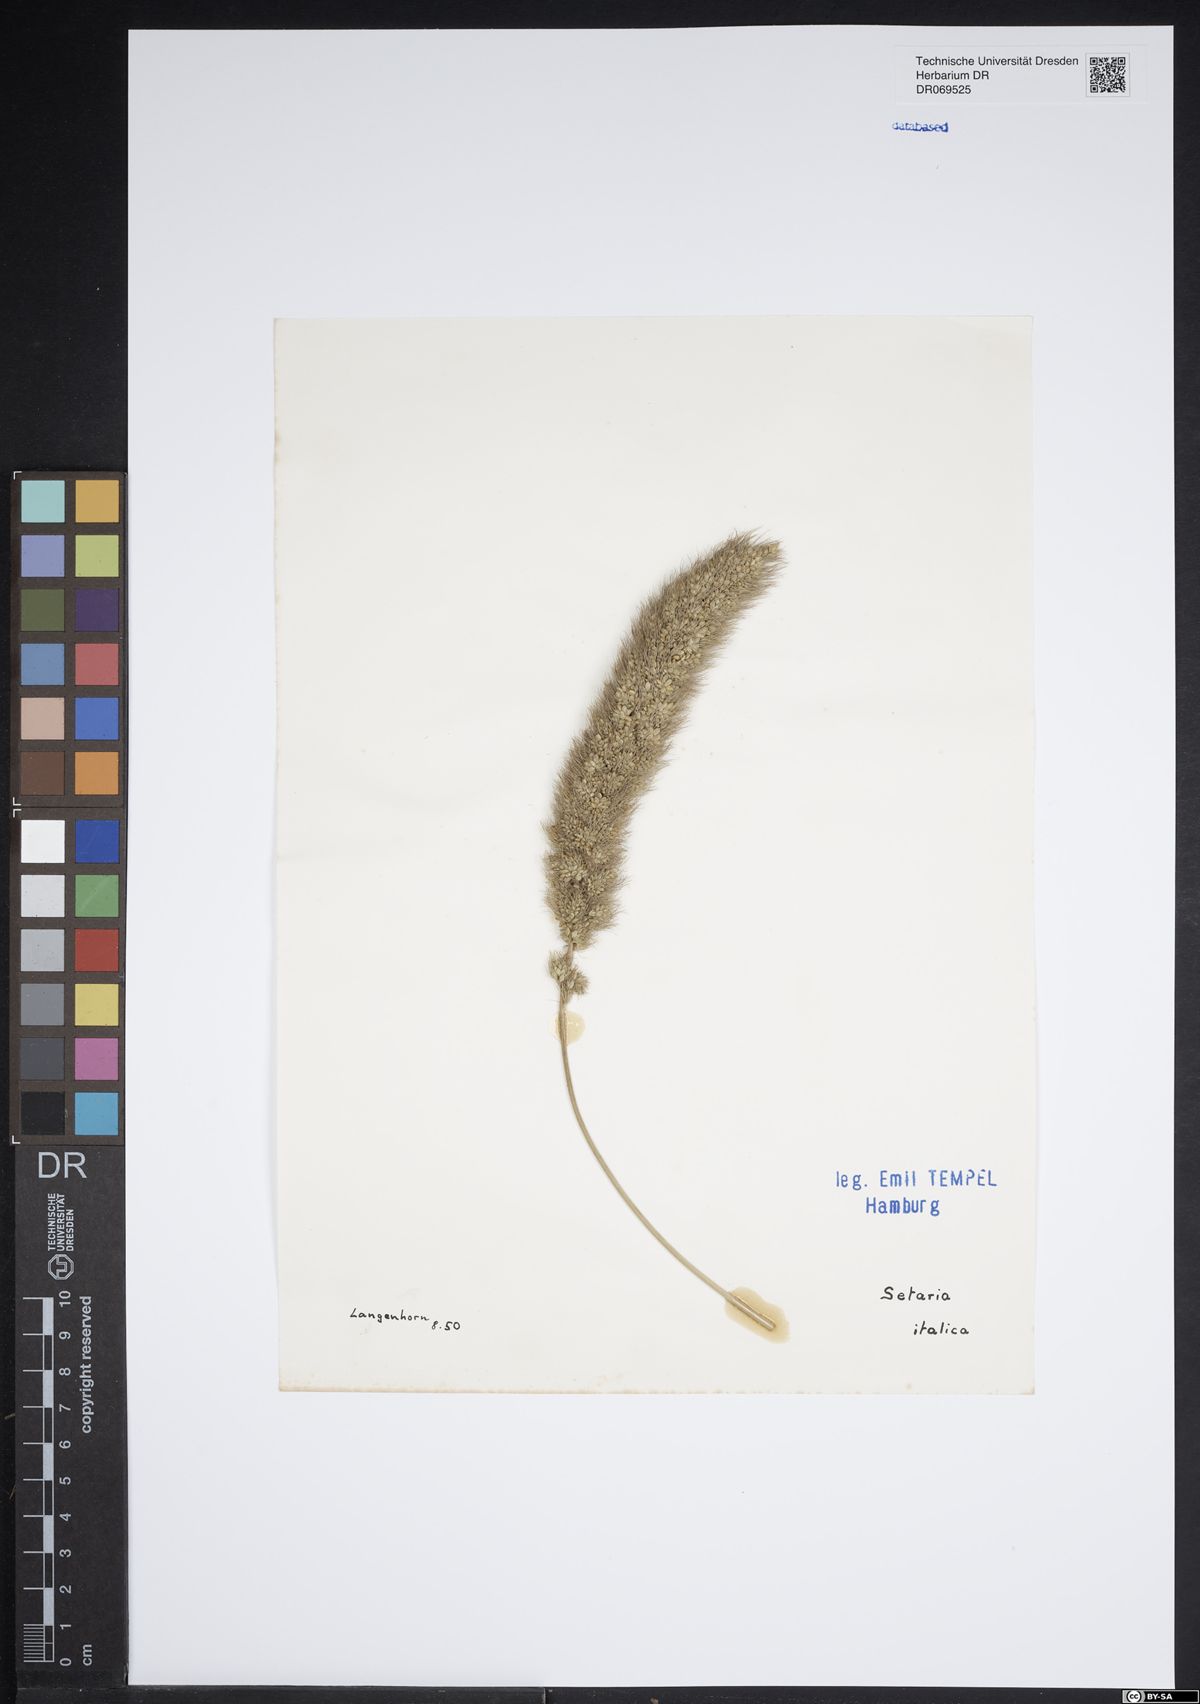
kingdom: Plantae
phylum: Tracheophyta
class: Liliopsida
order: Poales
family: Poaceae
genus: Setaria
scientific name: Setaria italica
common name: Foxtail bristle-grass
